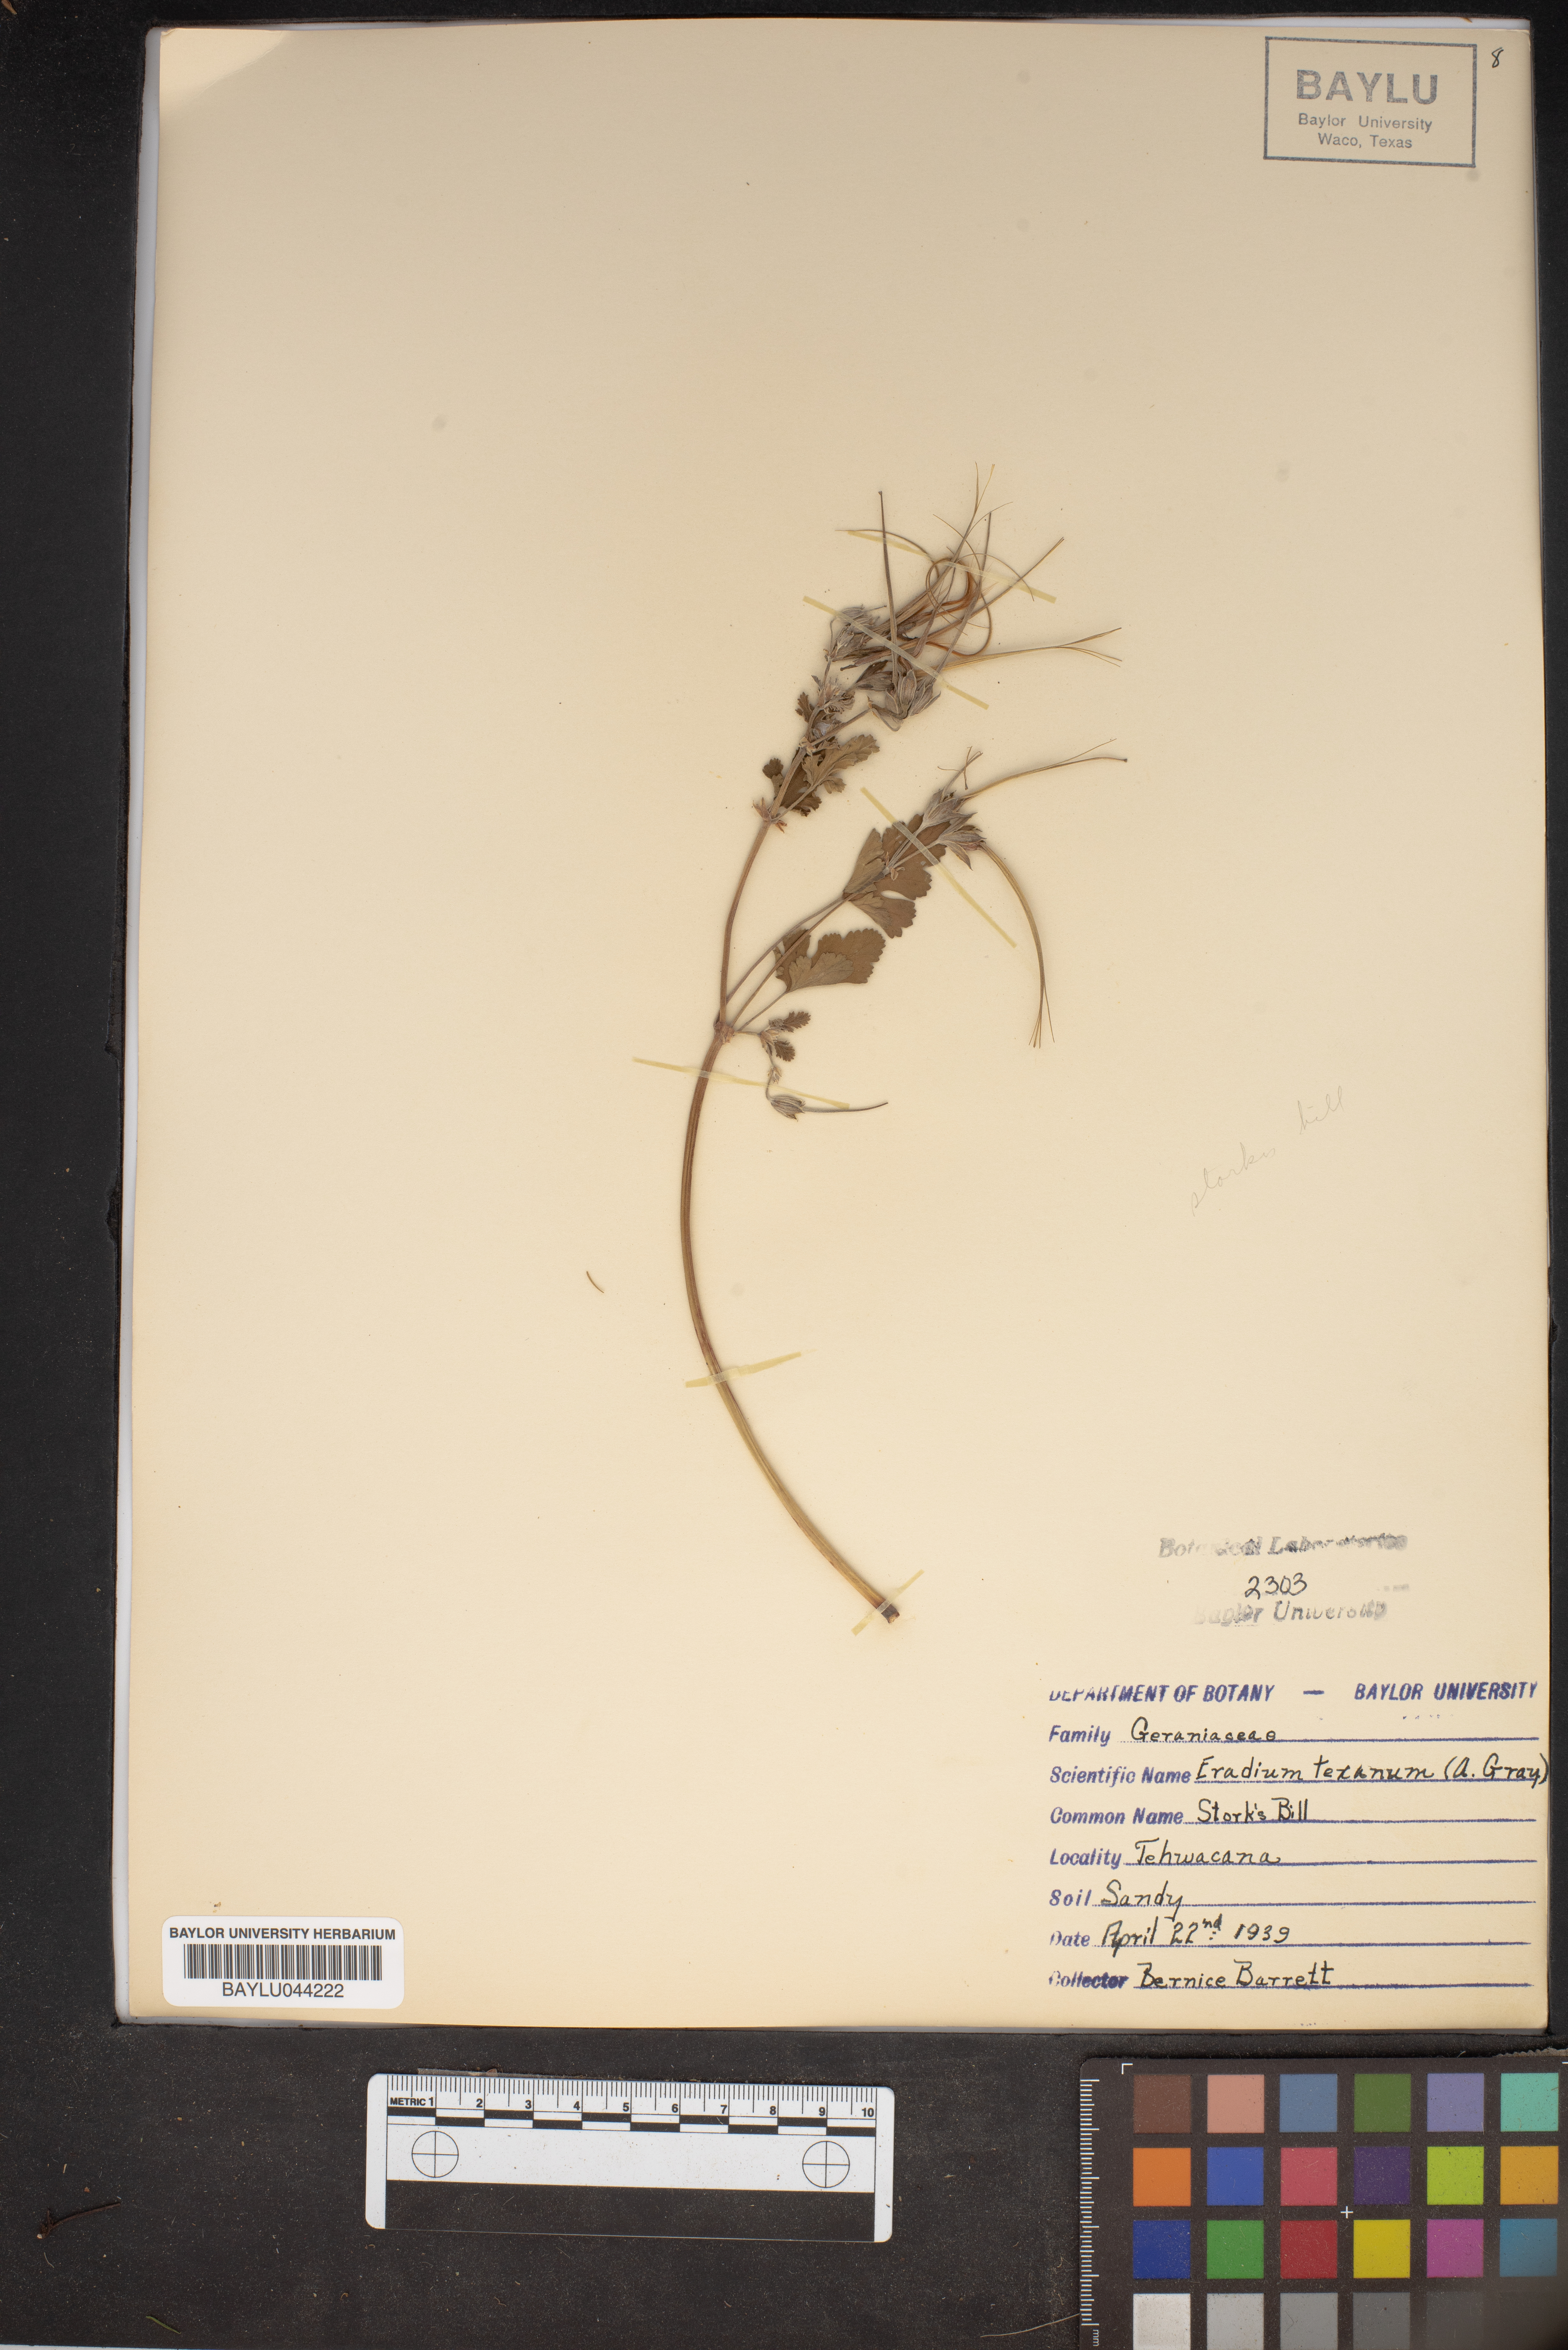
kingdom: Plantae
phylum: Tracheophyta
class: Magnoliopsida
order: Geraniales
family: Geraniaceae
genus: Erodium
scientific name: Erodium texanum
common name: Texas stork's-bill
